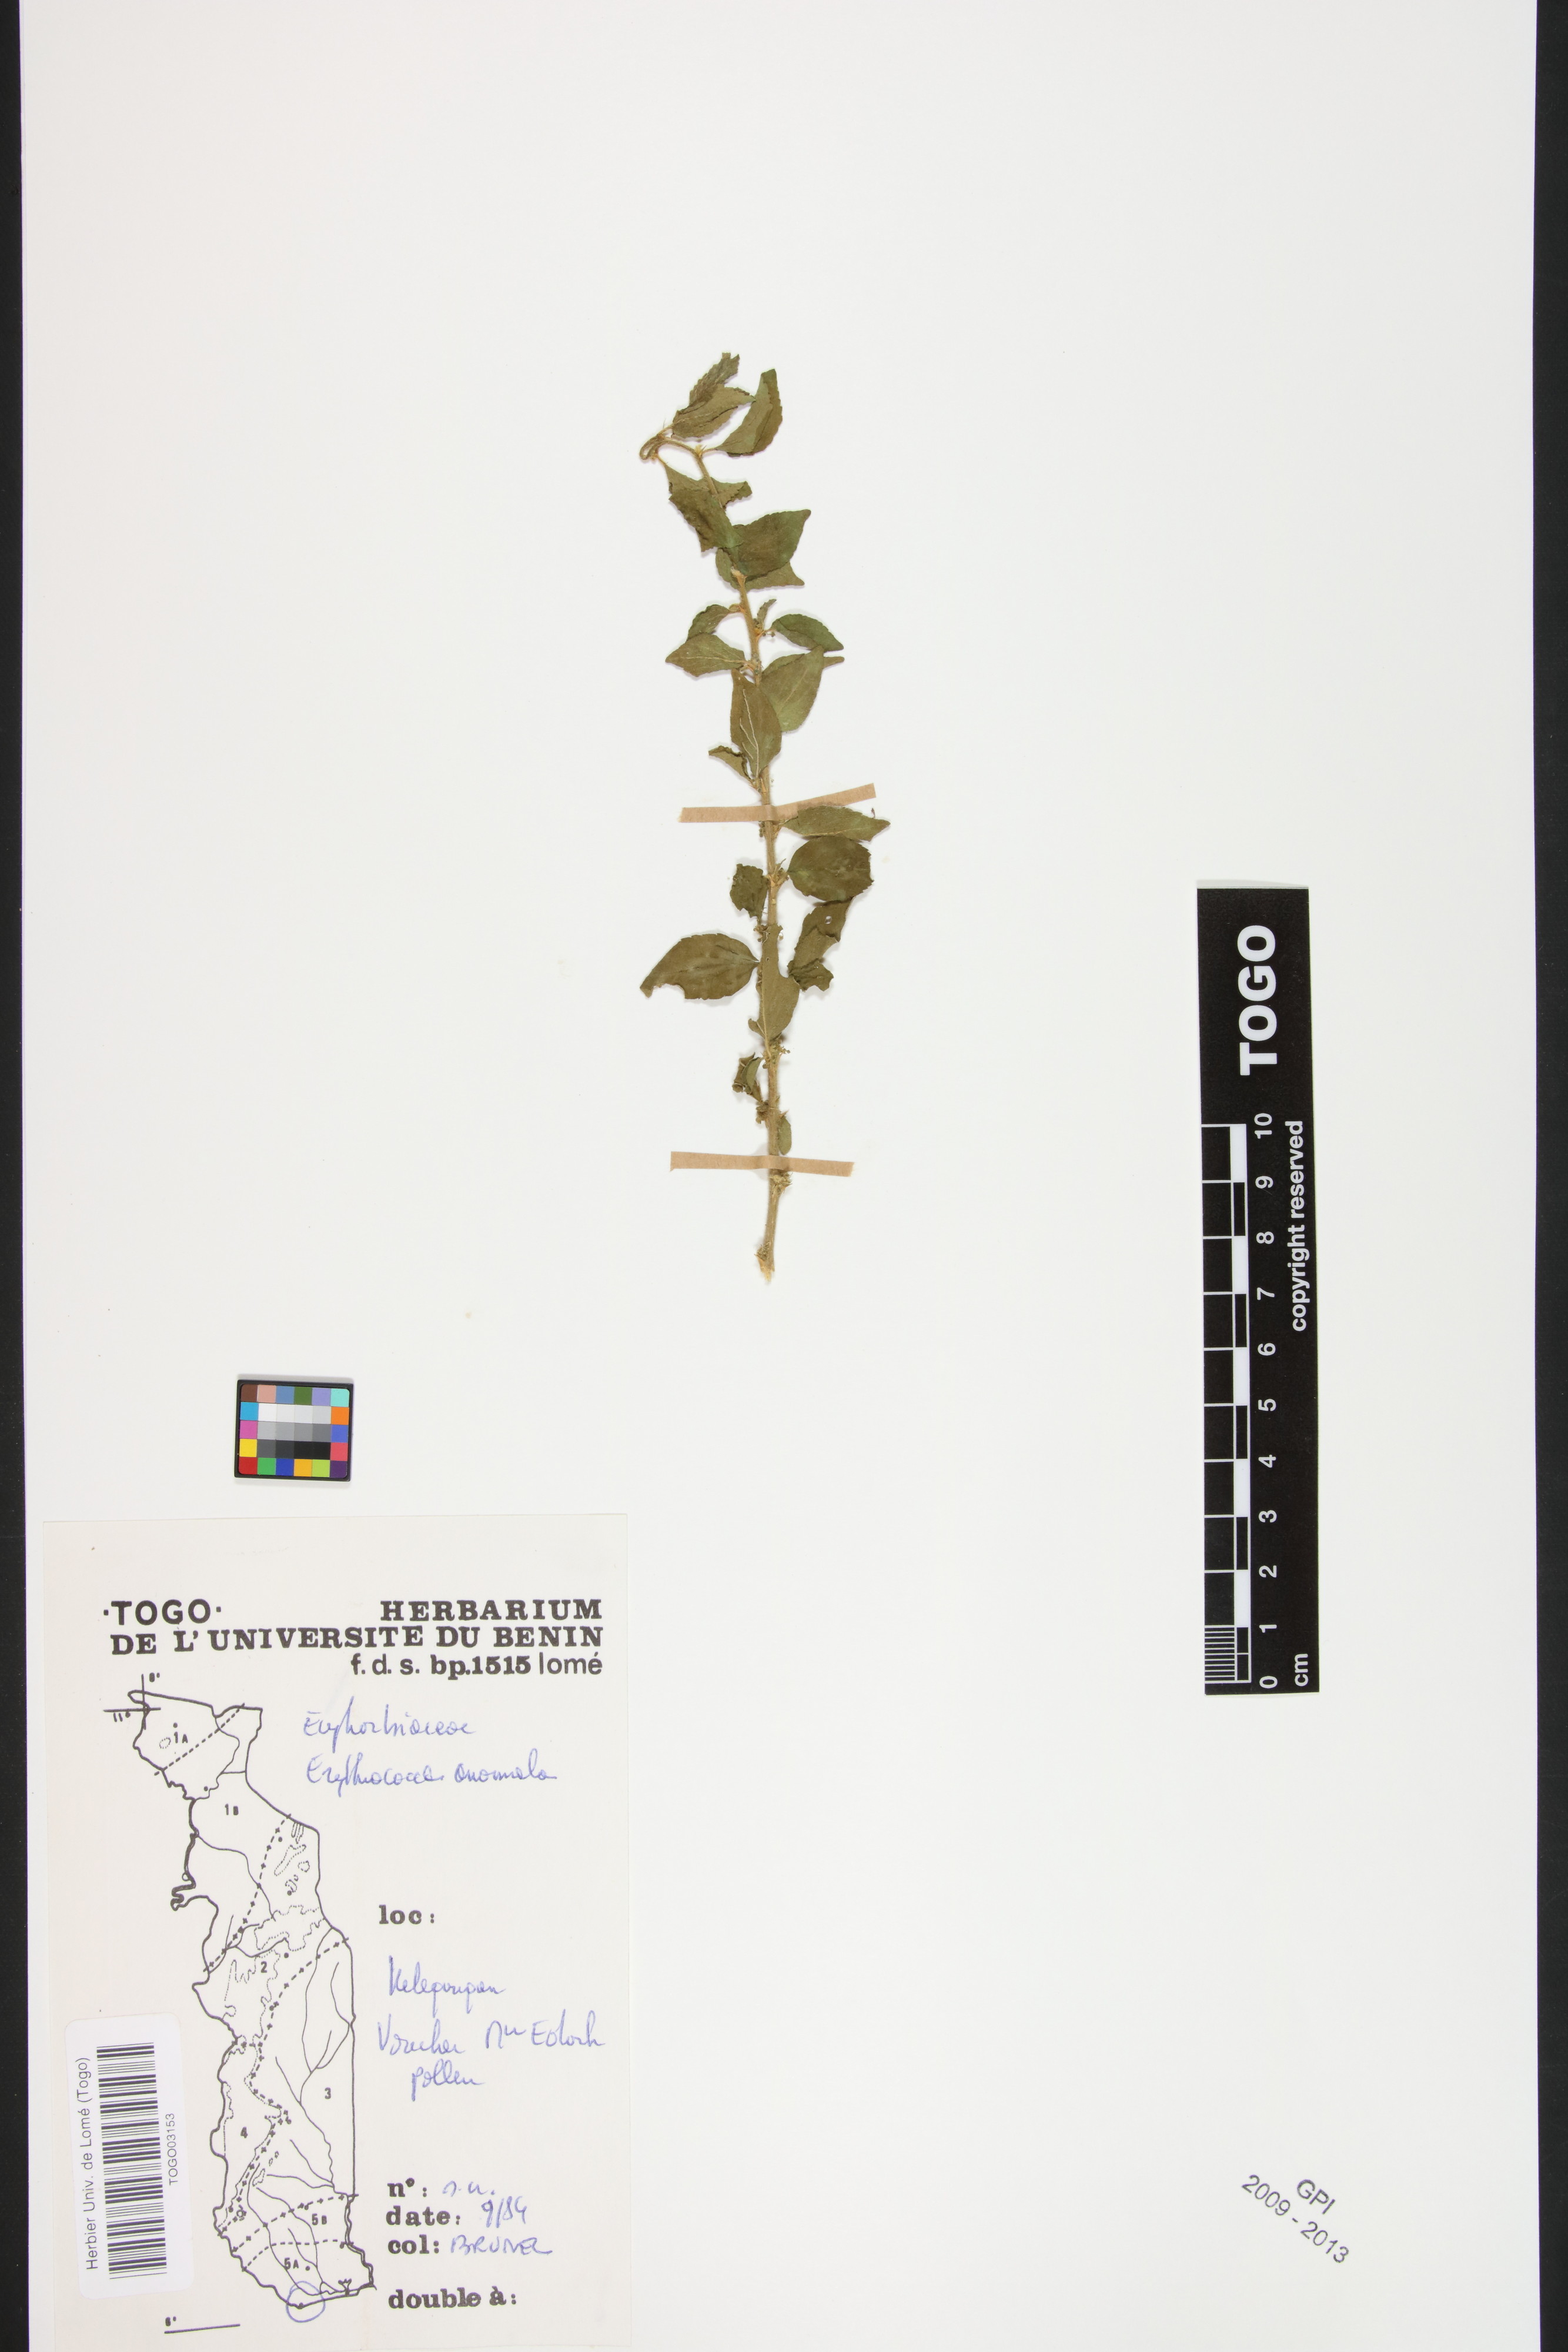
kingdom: Plantae
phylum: Tracheophyta
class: Magnoliopsida
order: Malpighiales
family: Euphorbiaceae
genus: Erythrococca
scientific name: Erythrococca anomala
